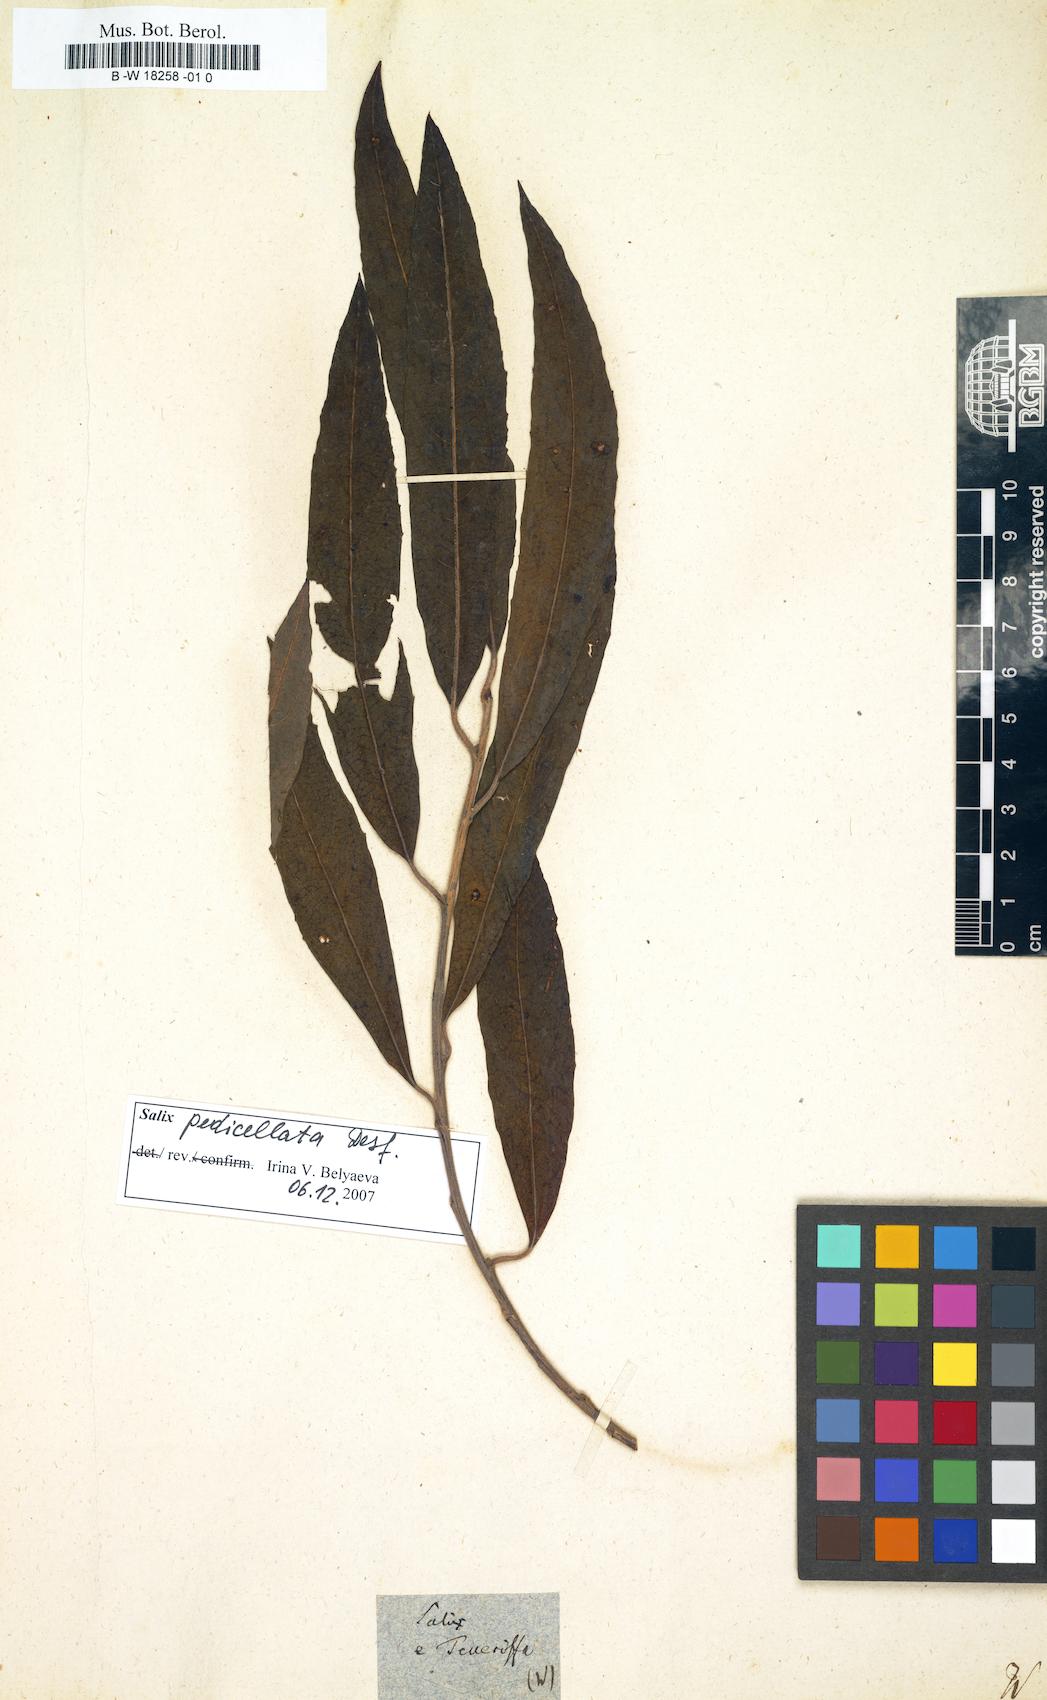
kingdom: Plantae
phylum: Tracheophyta
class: Magnoliopsida
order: Malpighiales
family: Salicaceae
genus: Salix
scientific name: Salix
